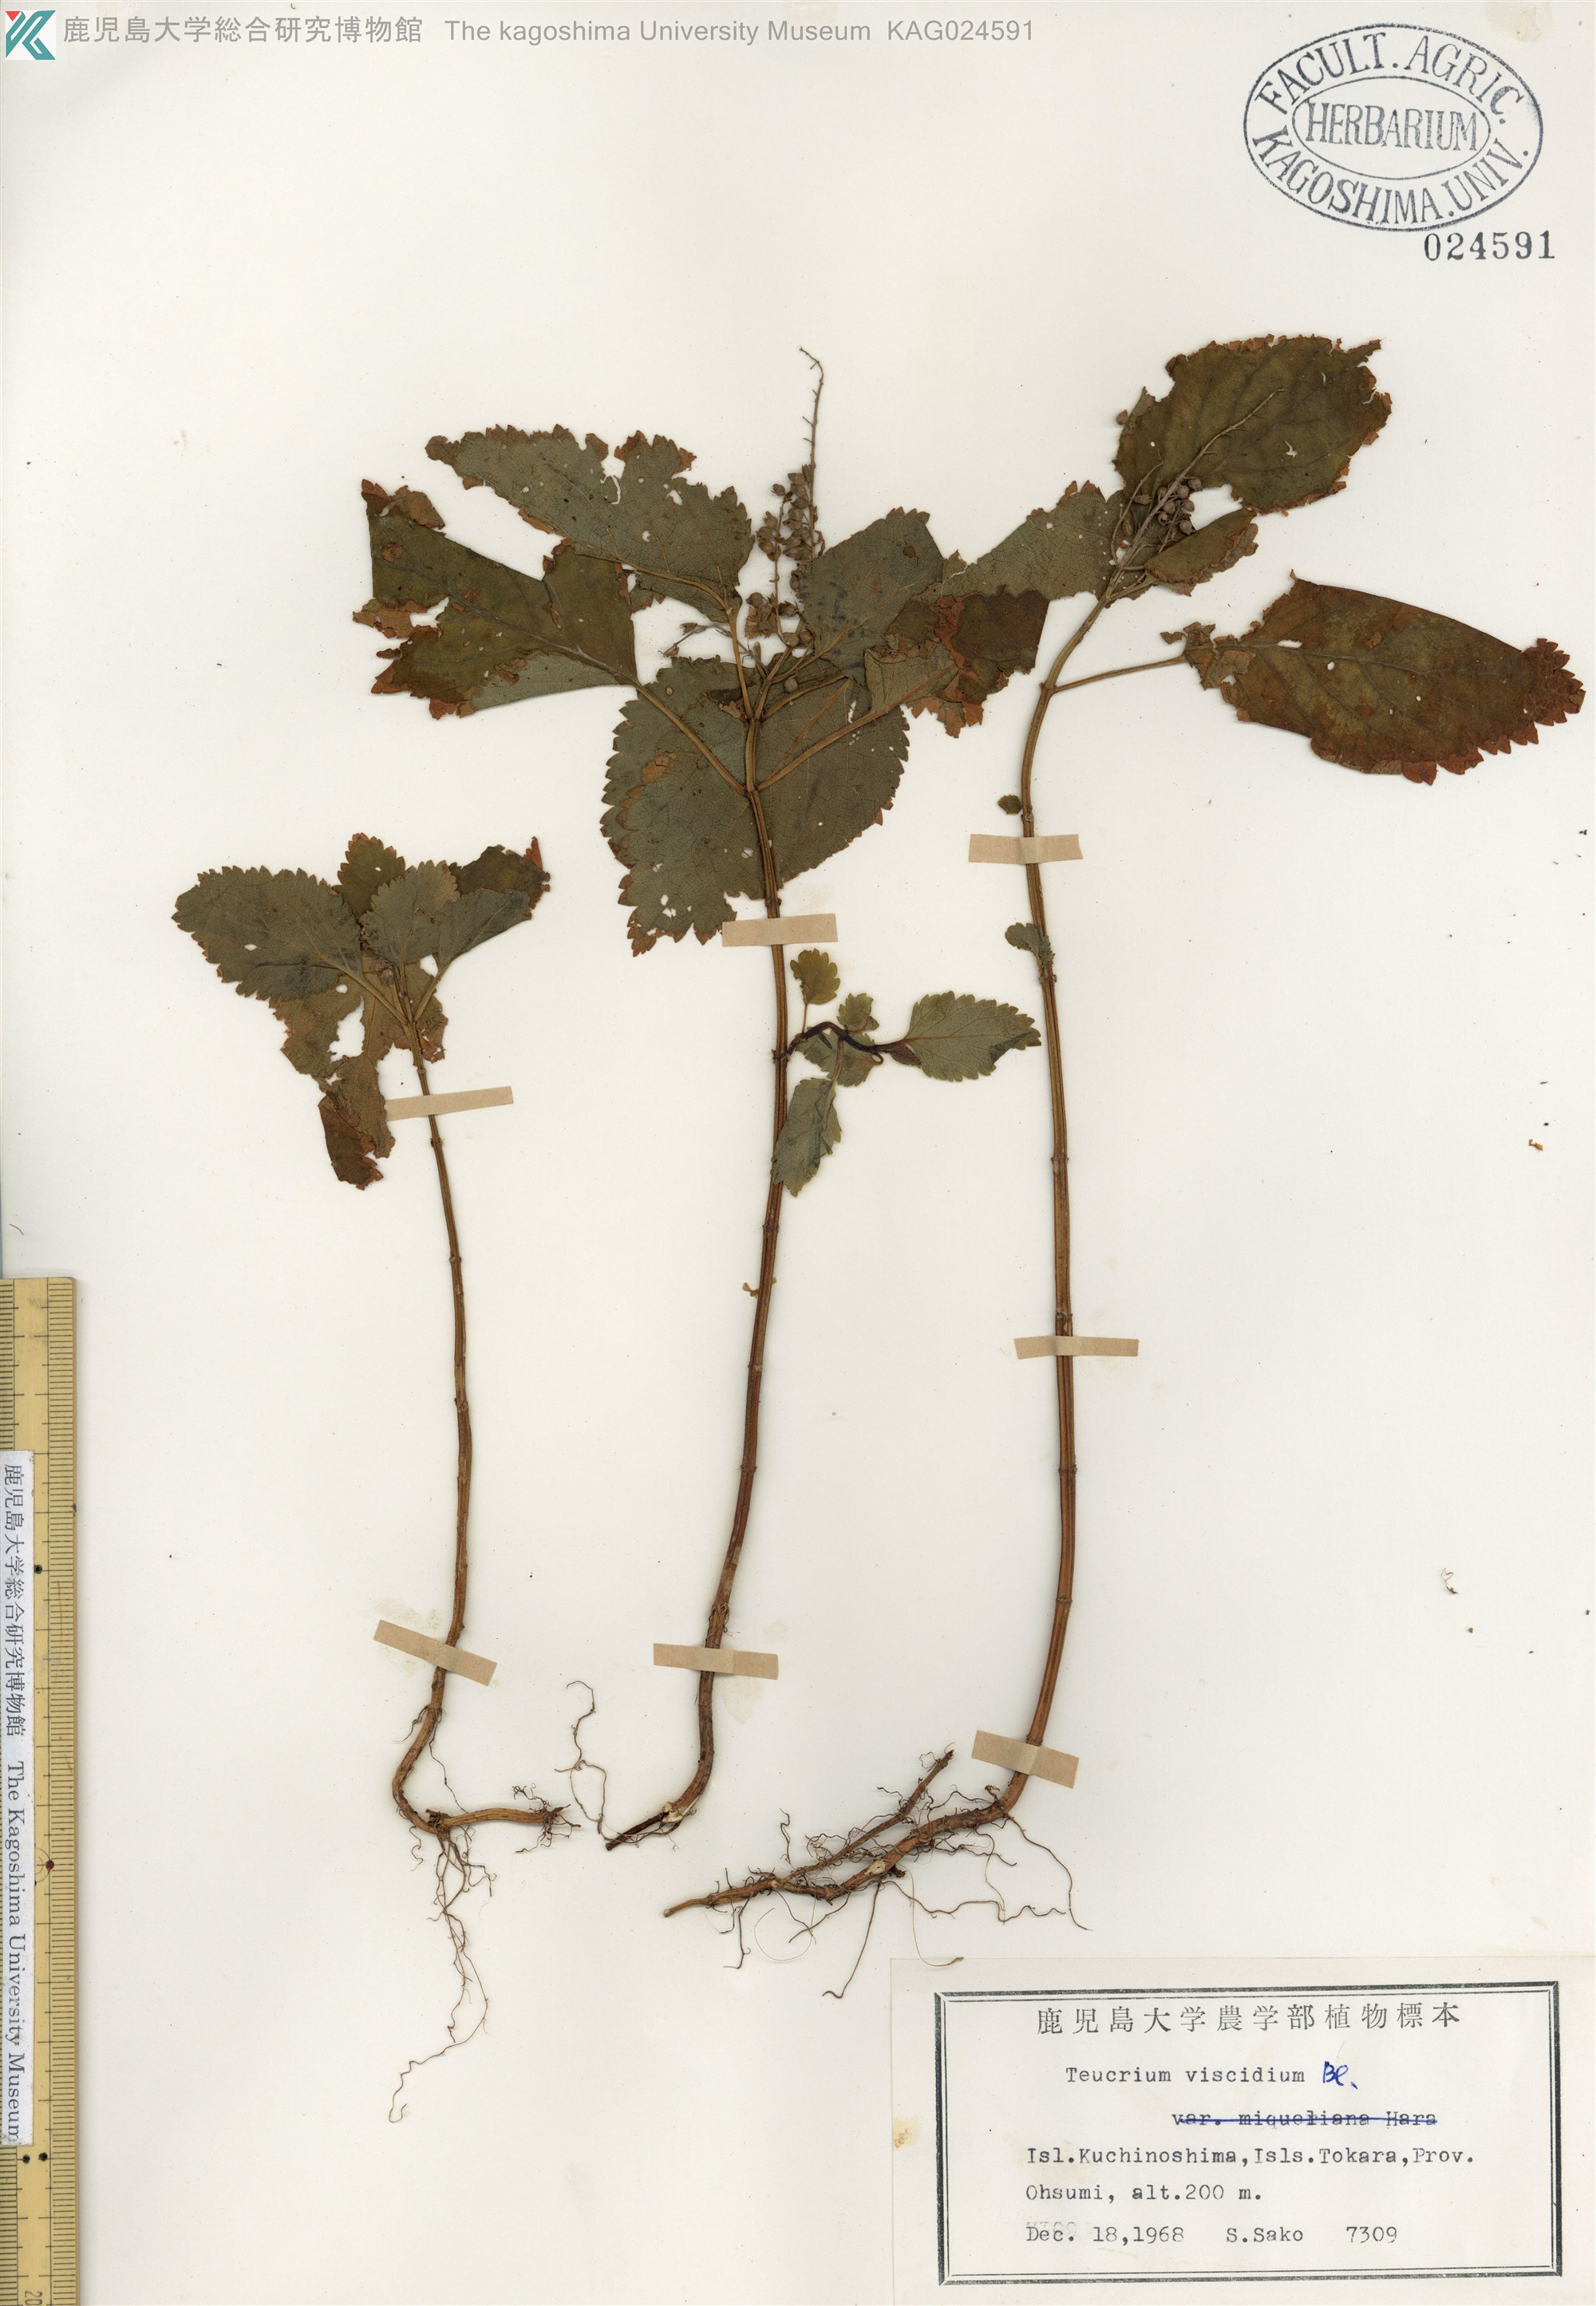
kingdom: Plantae
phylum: Tracheophyta
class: Magnoliopsida
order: Lamiales
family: Lamiaceae
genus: Teucrium
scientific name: Teucrium viscidum
